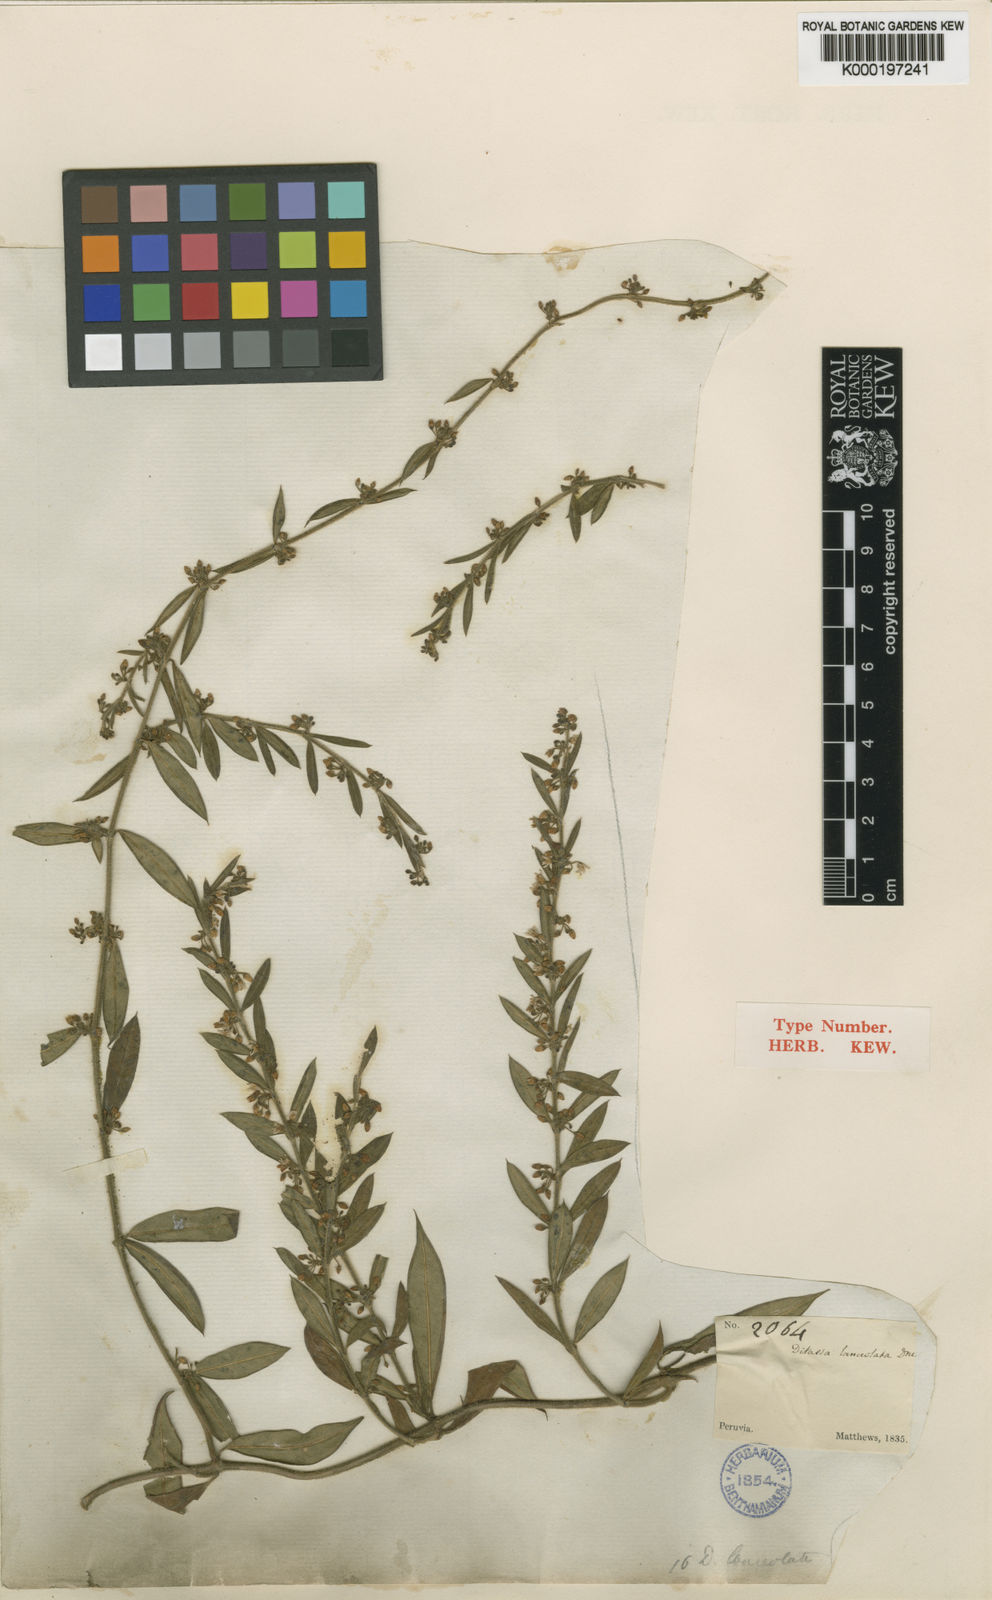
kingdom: Plantae
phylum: Tracheophyta
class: Magnoliopsida
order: Gentianales
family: Apocynaceae
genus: Ditassa
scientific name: Ditassa lanceolata
